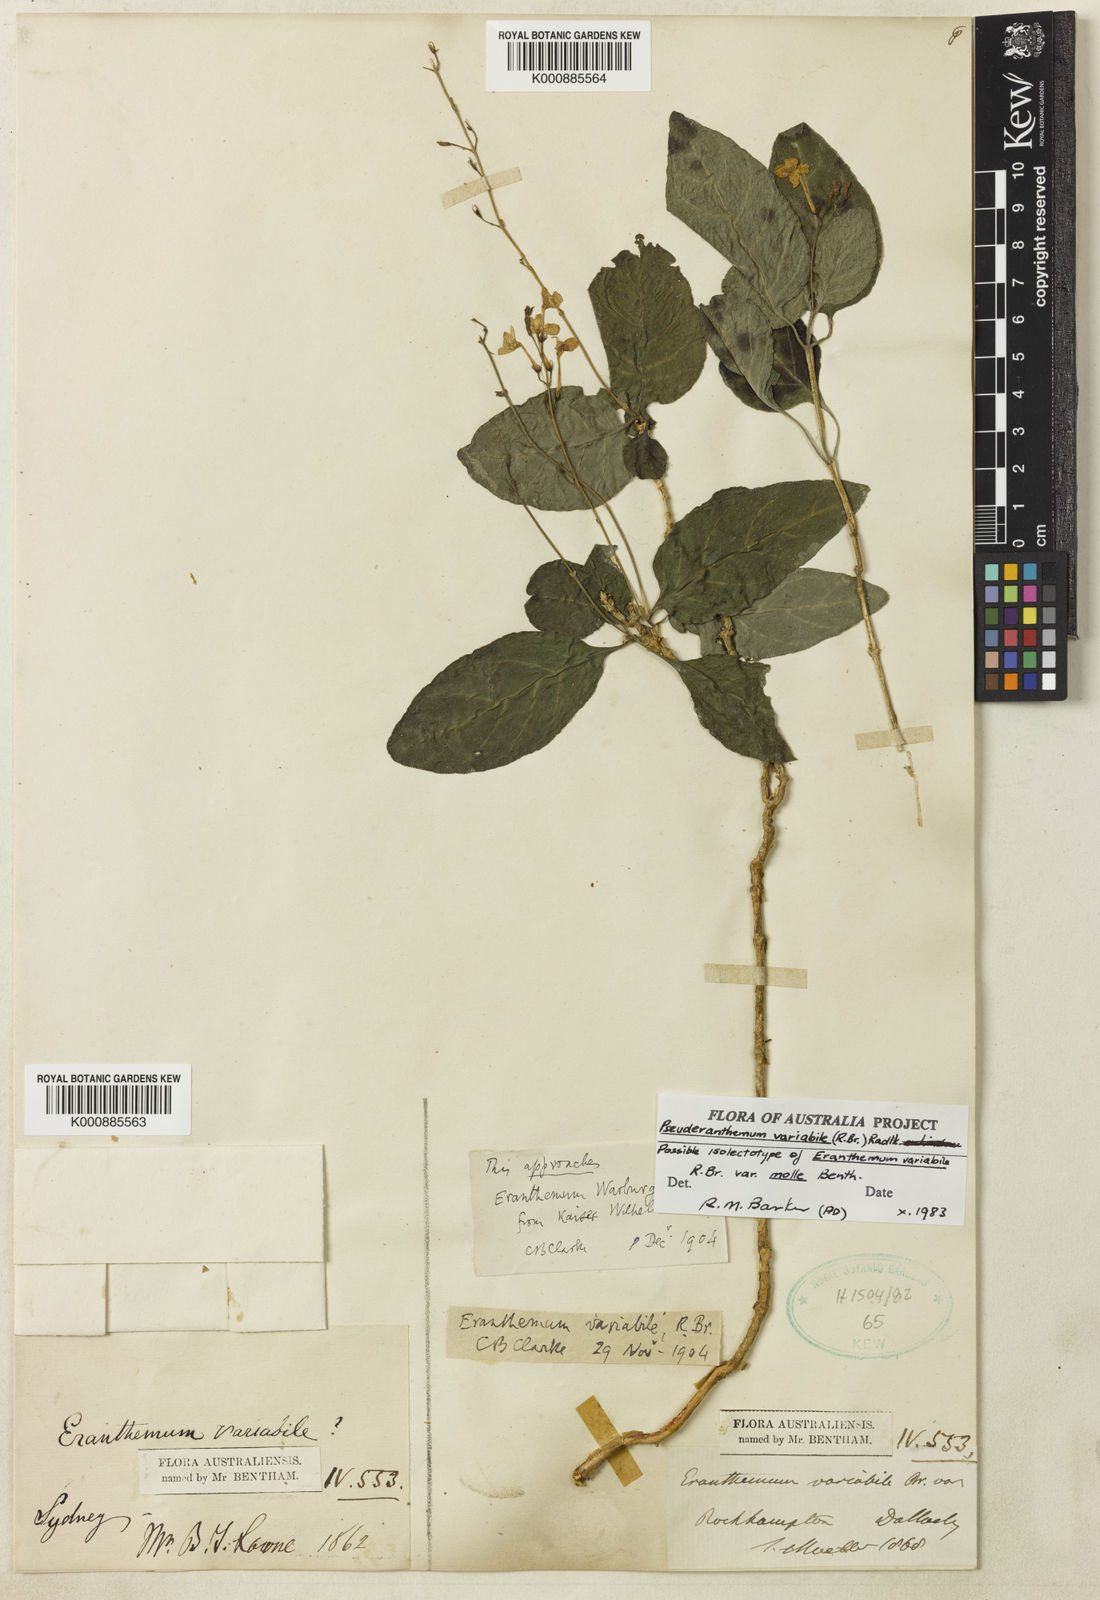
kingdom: Plantae
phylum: Tracheophyta
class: Magnoliopsida
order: Lamiales
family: Acanthaceae
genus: Pseuderanthemum
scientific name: Pseuderanthemum variabile
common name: Night and afternoon
